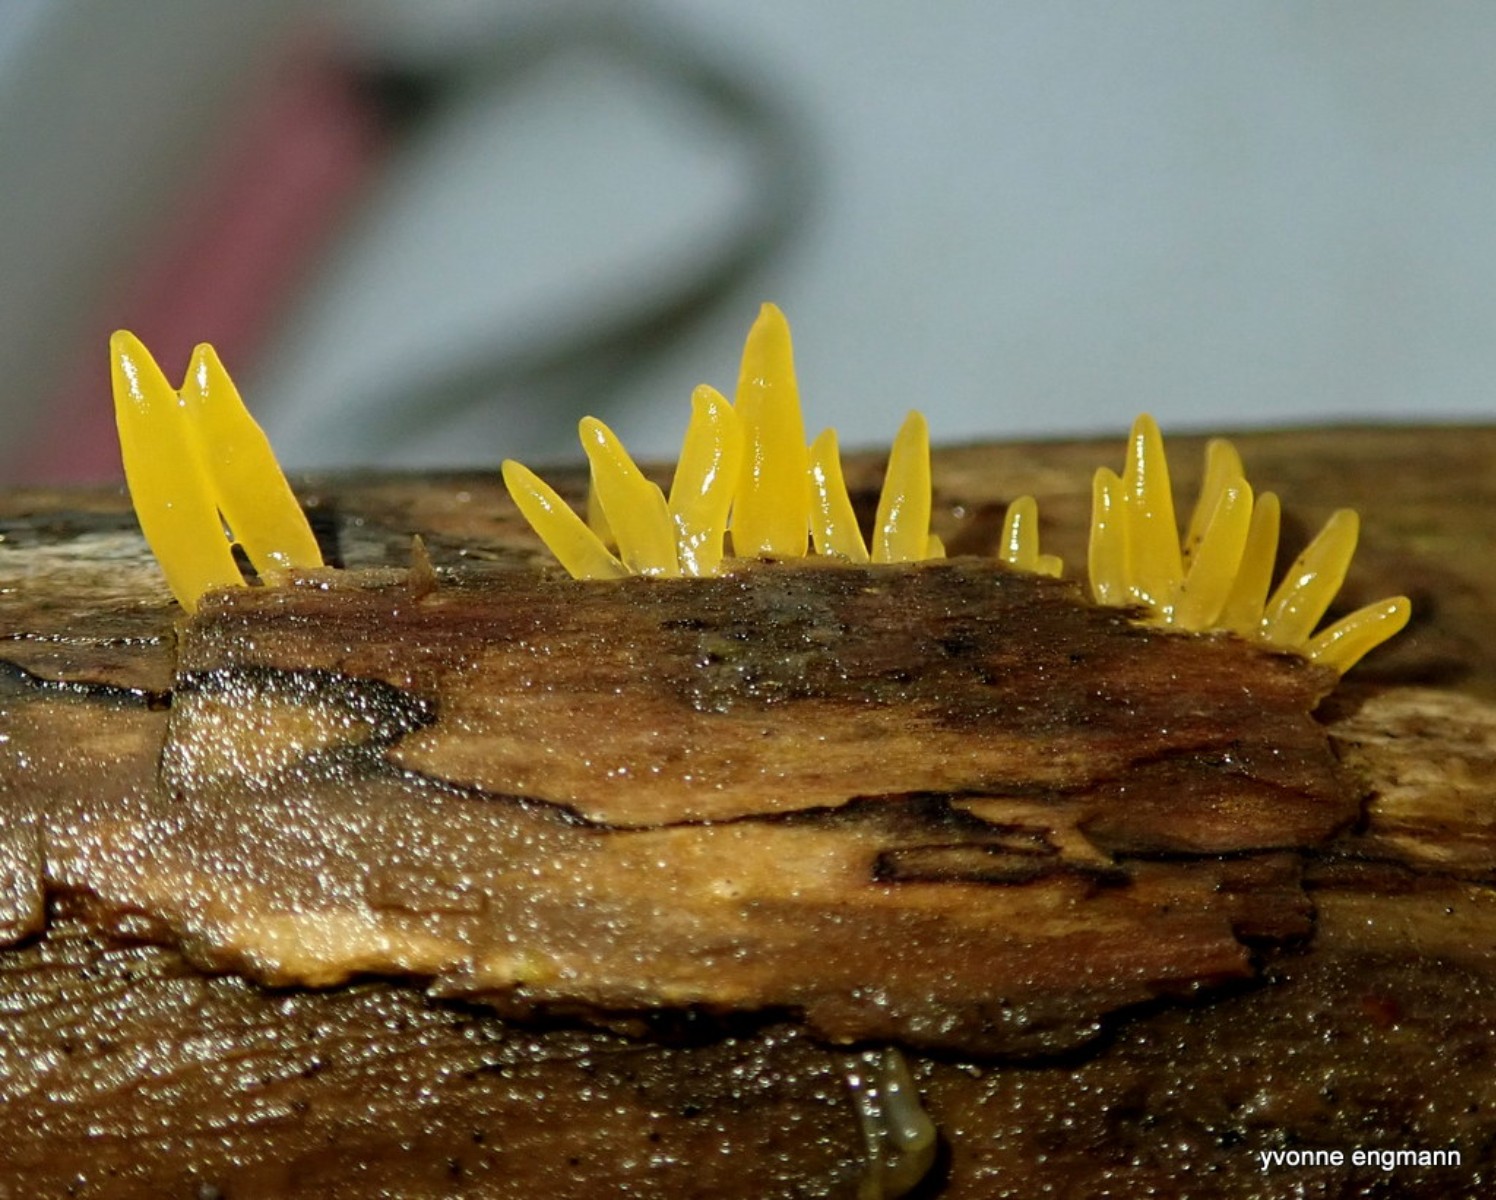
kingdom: Fungi
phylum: Basidiomycota
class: Dacrymycetes
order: Dacrymycetales
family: Dacrymycetaceae
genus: Calocera
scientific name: Calocera cornea
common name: liden guldgaffel
